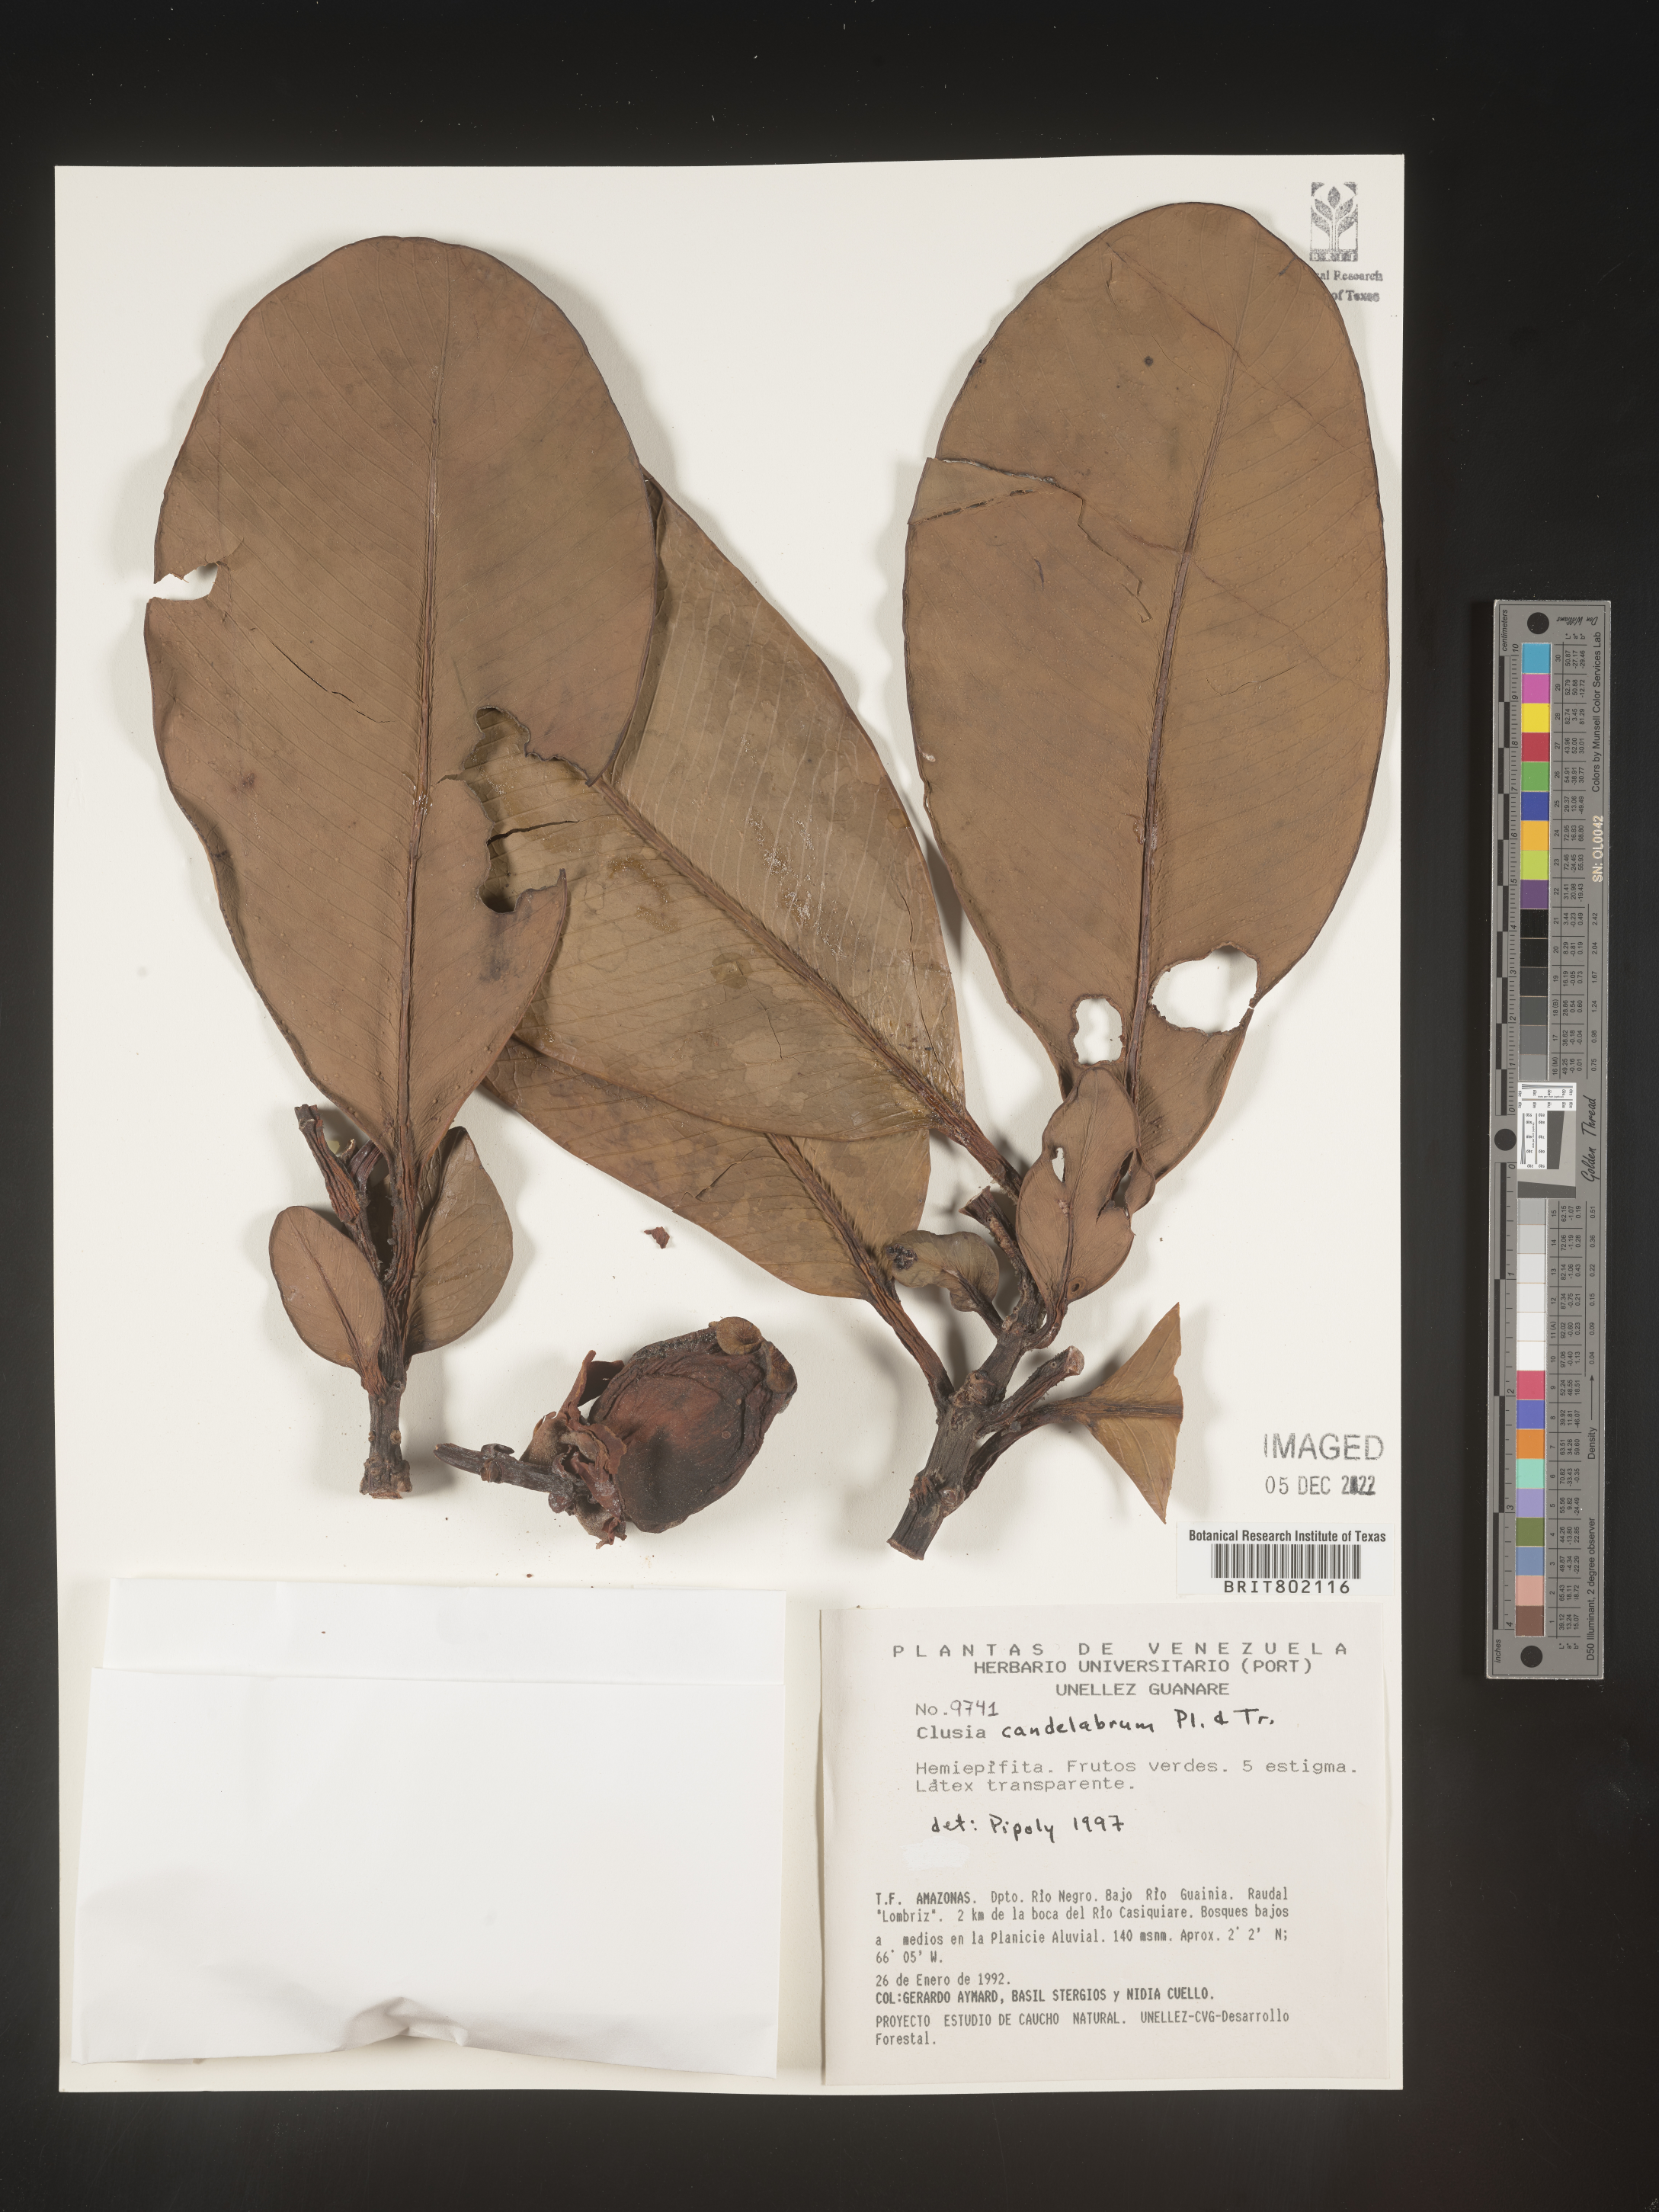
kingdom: Plantae
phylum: Tracheophyta
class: Magnoliopsida
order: Malpighiales
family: Clusiaceae
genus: Clusia
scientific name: Clusia candelabrum
